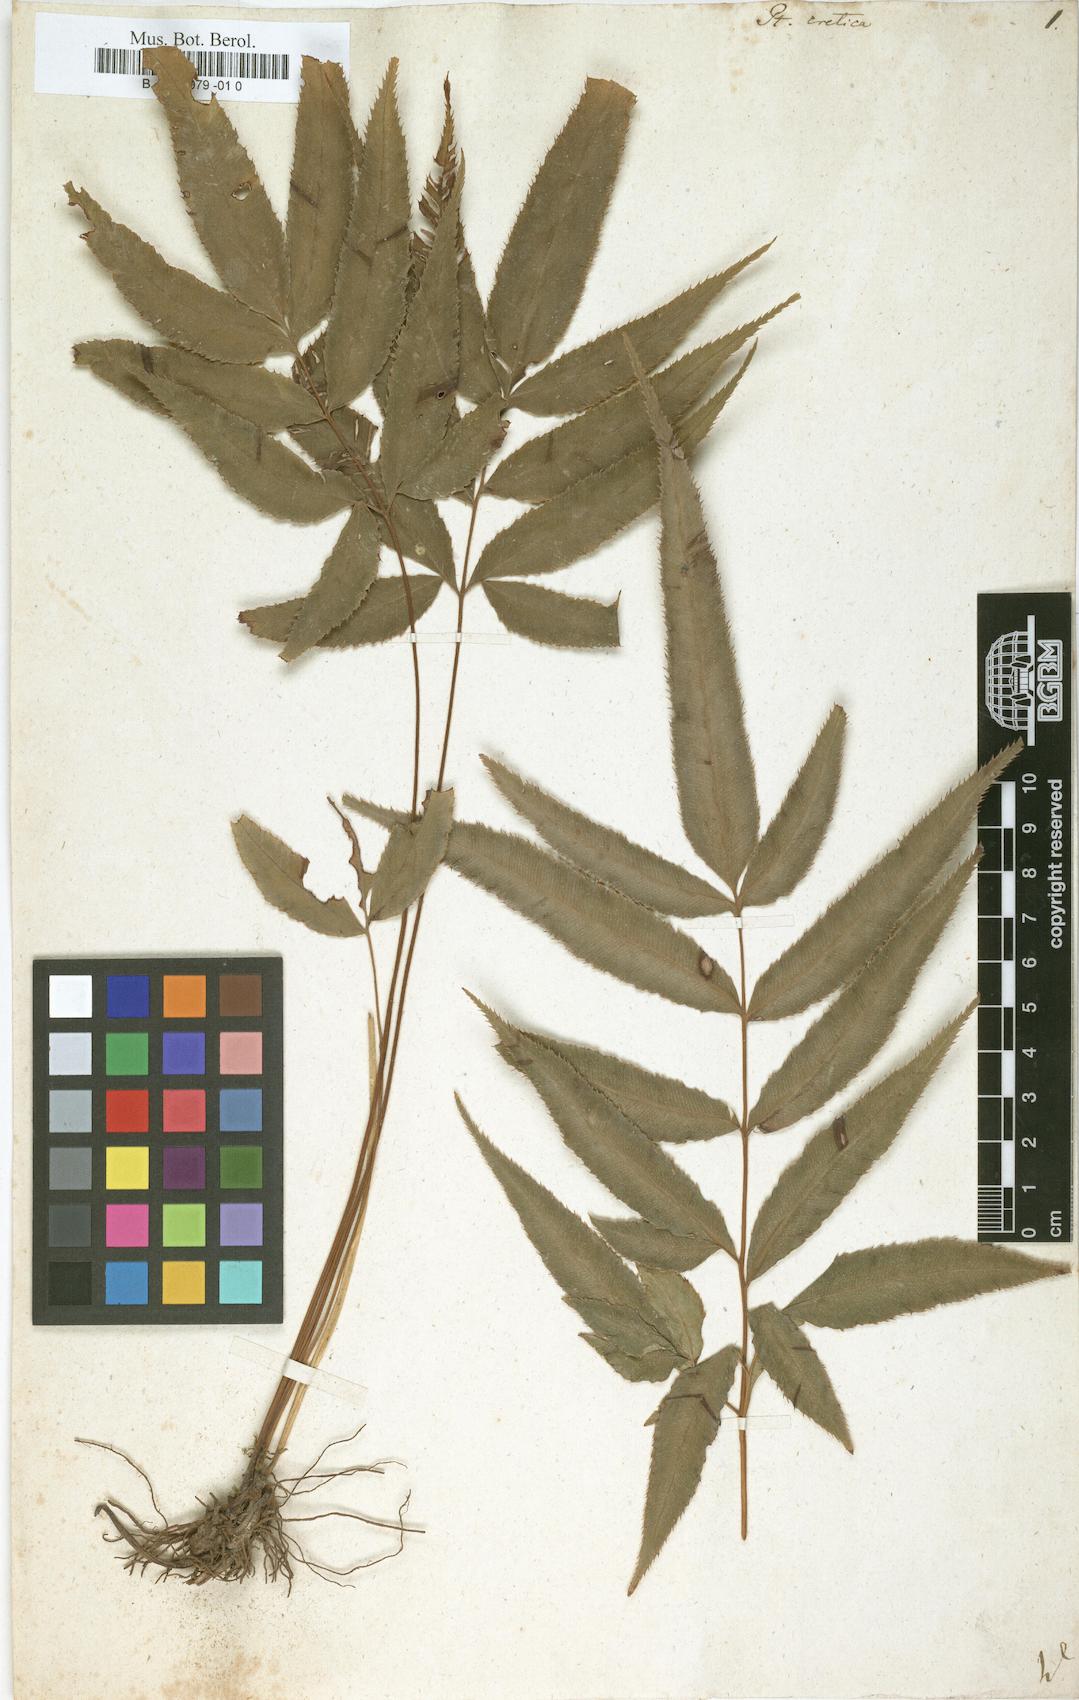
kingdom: Plantae
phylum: Tracheophyta
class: Polypodiopsida
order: Polypodiales
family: Pteridaceae
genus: Pteris
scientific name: Pteris cretica
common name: Ribbon fern
